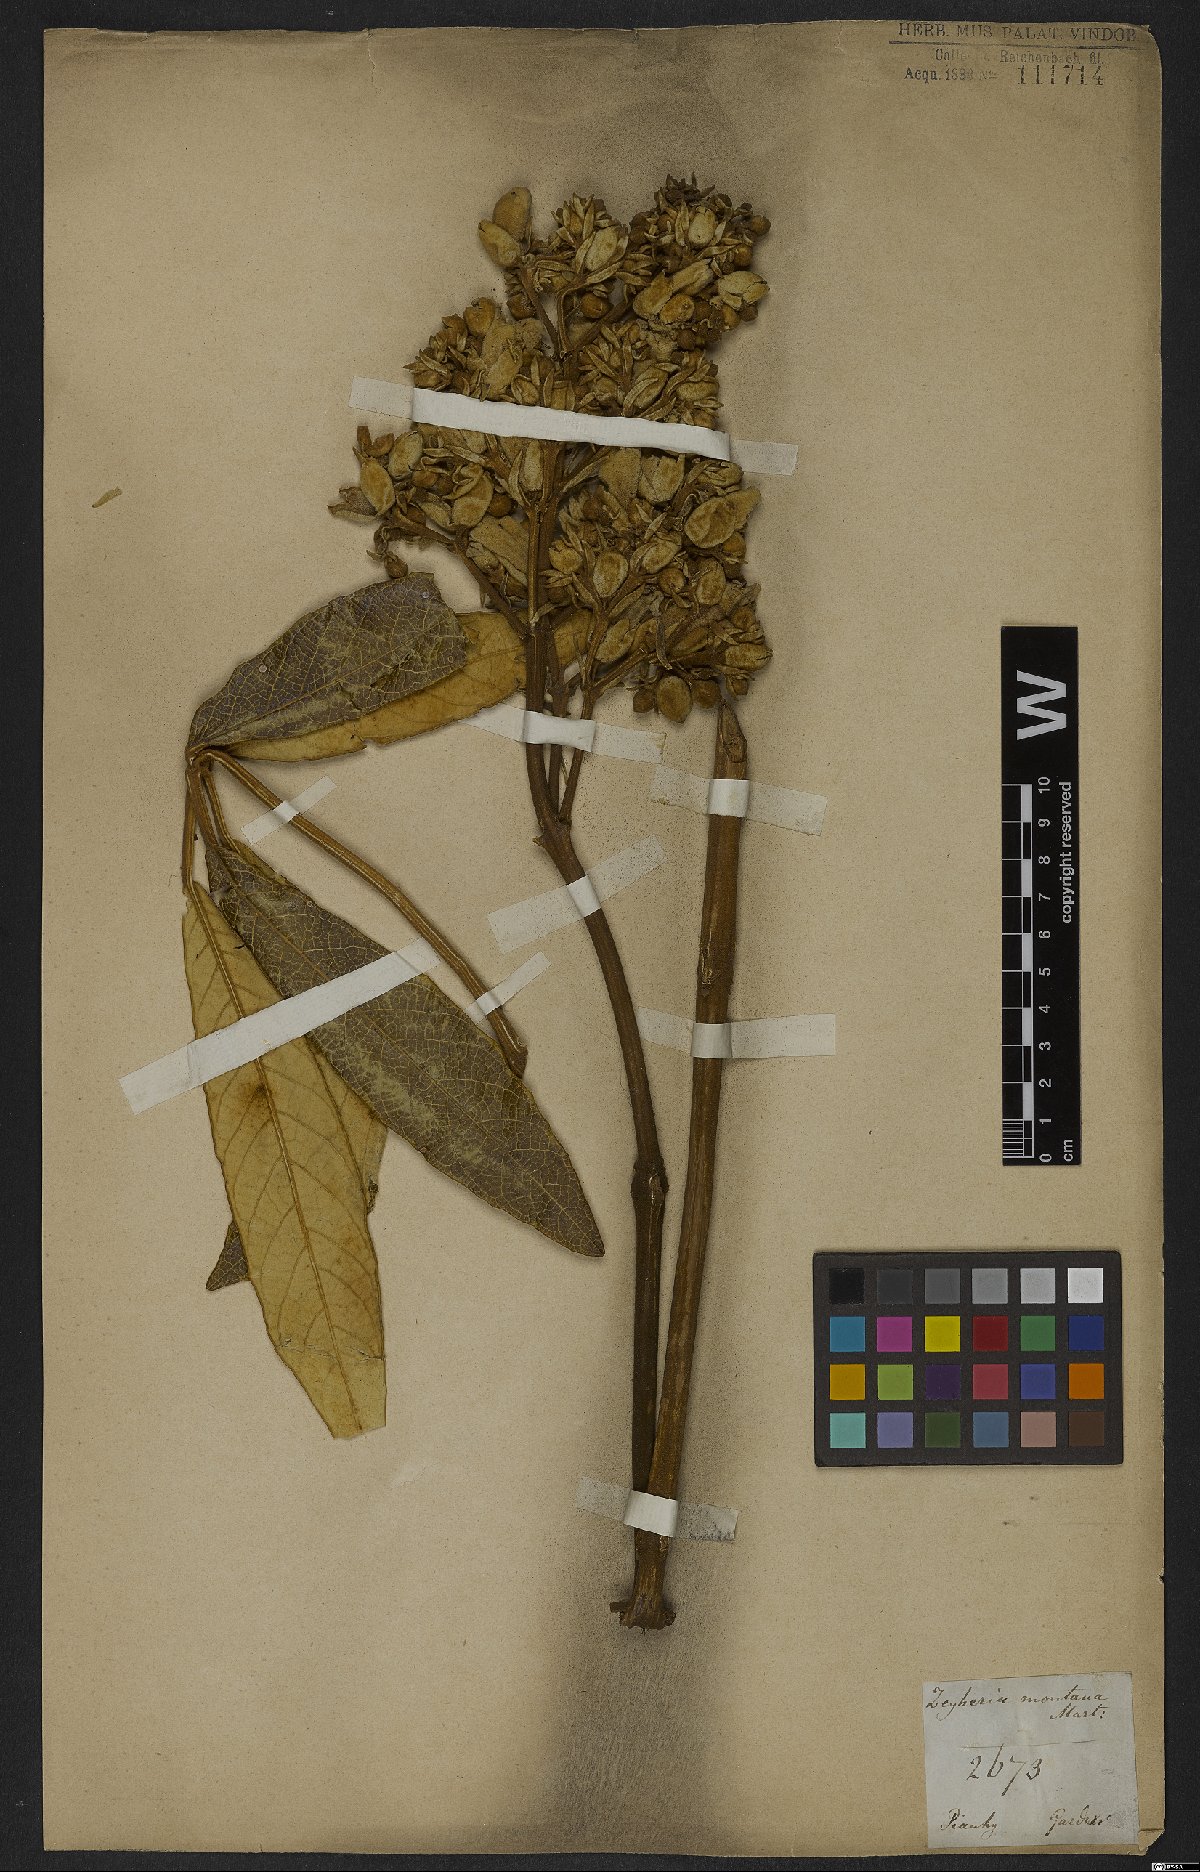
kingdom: Plantae
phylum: Tracheophyta
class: Magnoliopsida
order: Lamiales
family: Bignoniaceae
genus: Zeyheria
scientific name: Zeyheria montana
